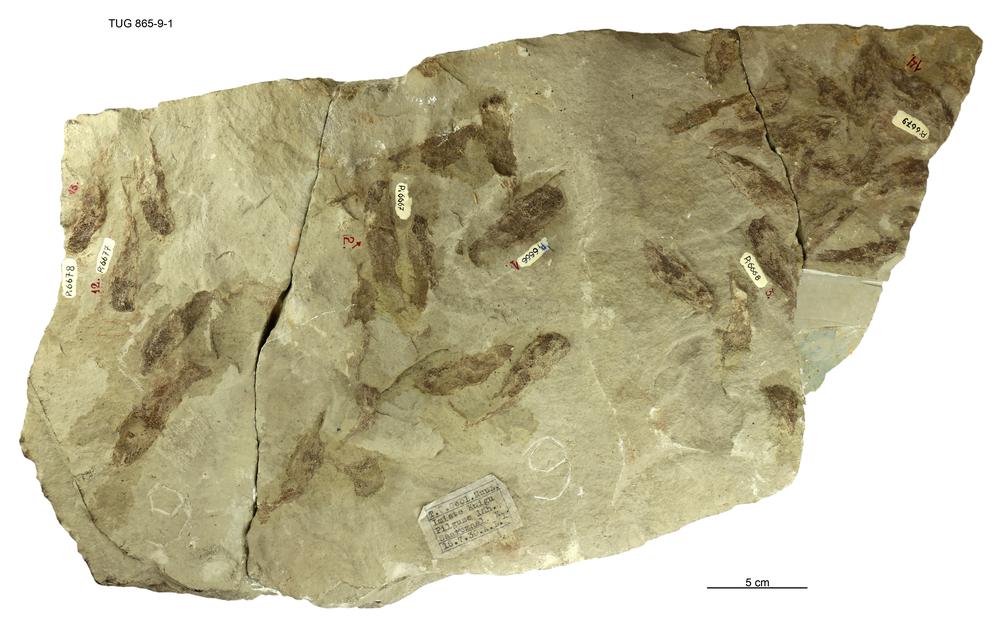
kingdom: Animalia
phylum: Chordata
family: Phlebolepididae
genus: Phlebolepis
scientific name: Phlebolepis elegans
